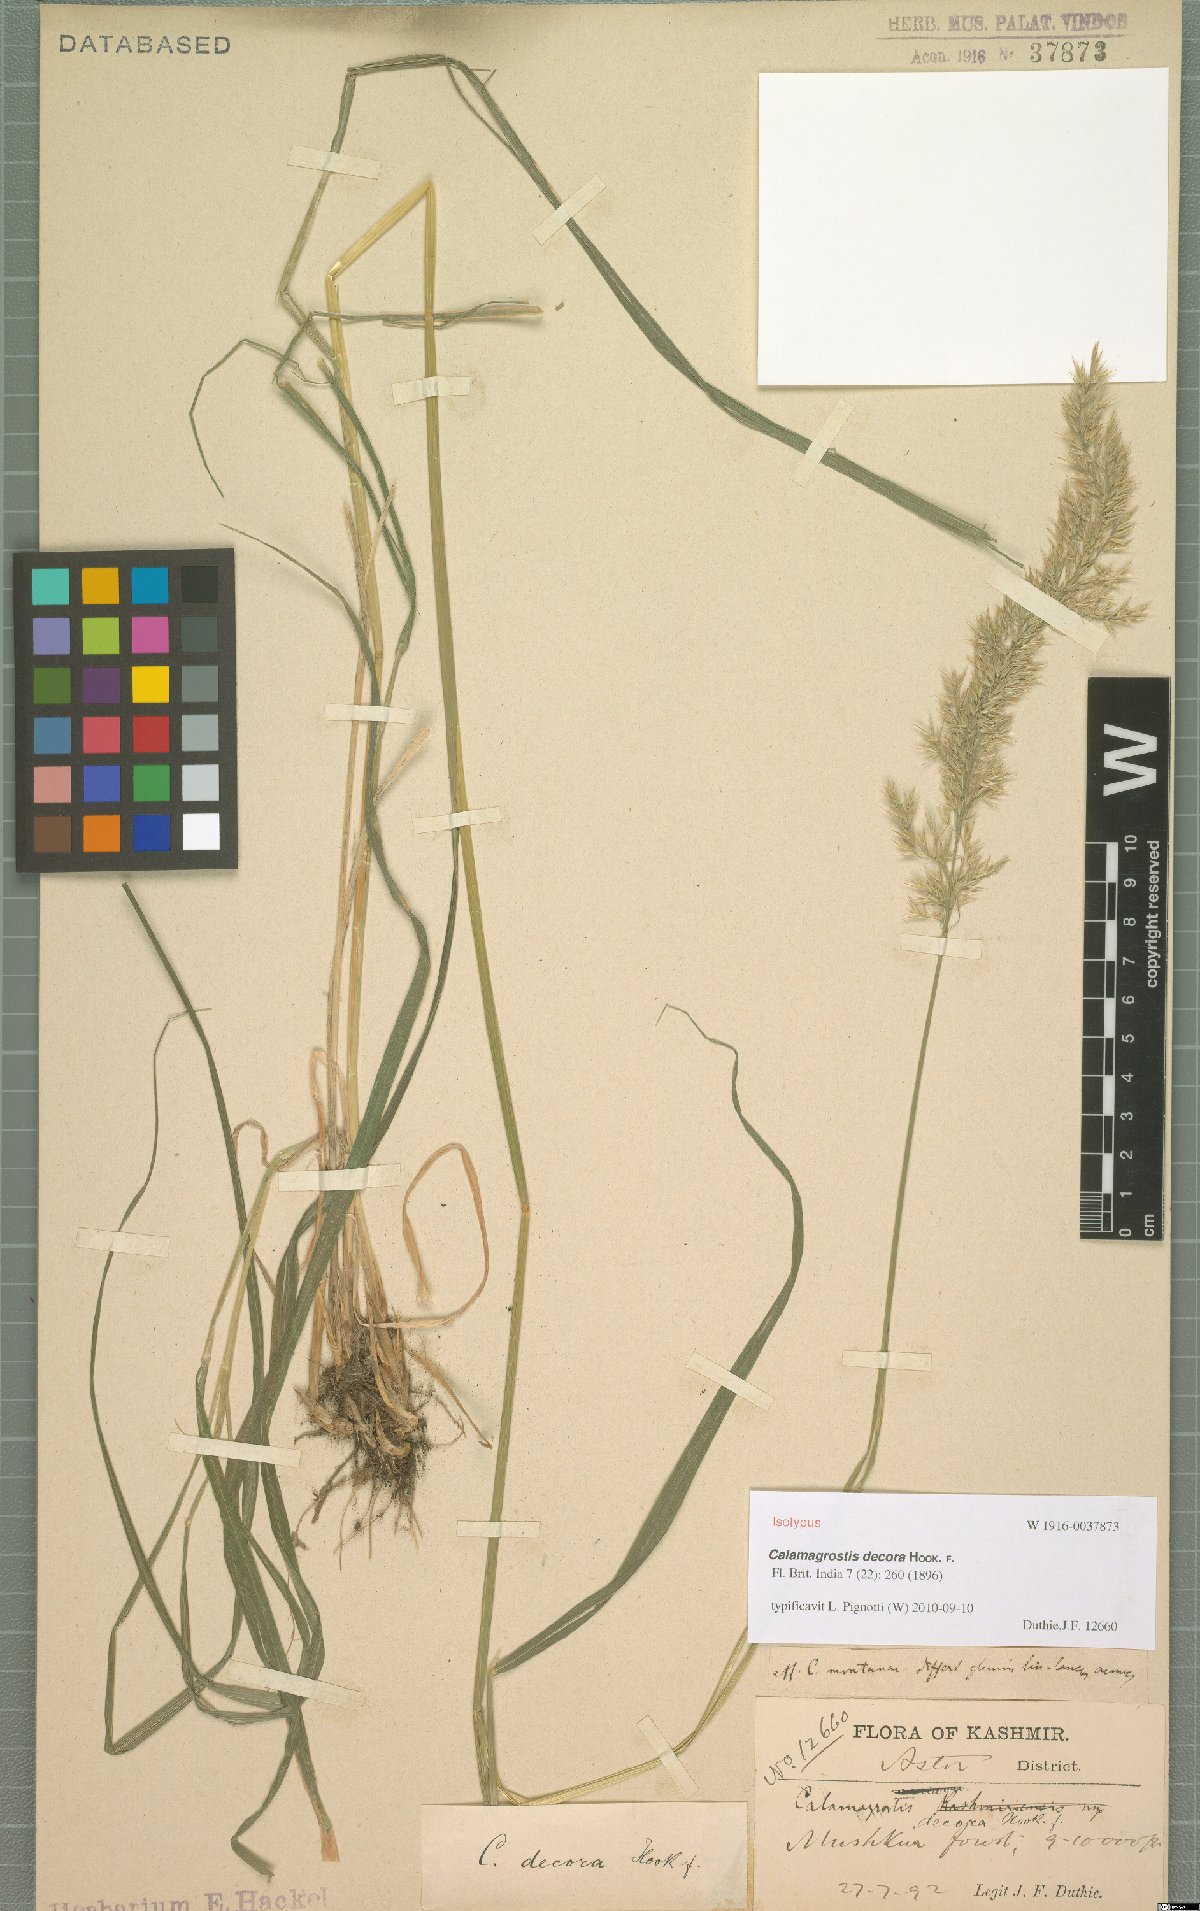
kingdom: Plantae
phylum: Tracheophyta
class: Liliopsida
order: Poales
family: Poaceae
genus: Calamagrostis
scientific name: Calamagrostis decora
